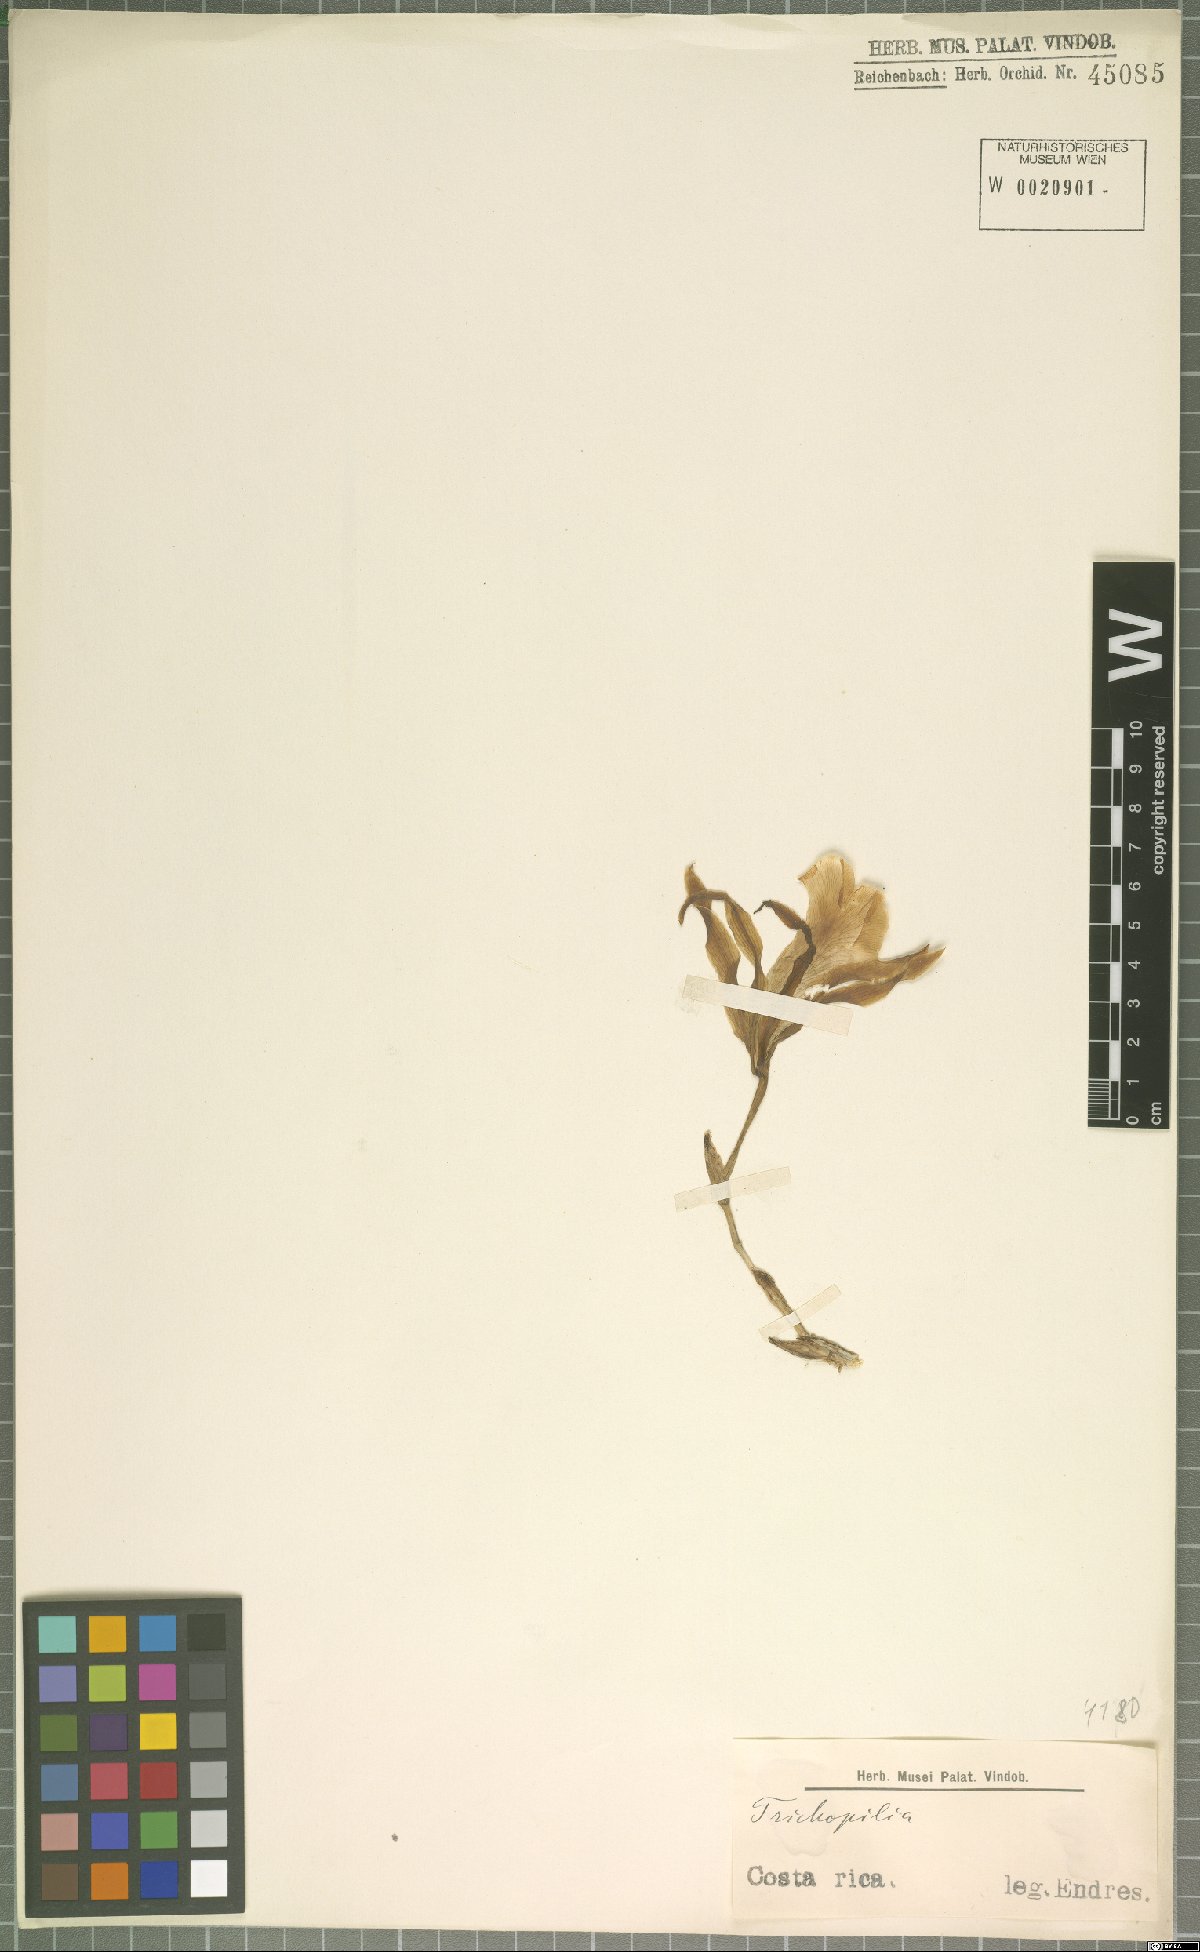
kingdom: Plantae
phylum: Tracheophyta
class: Liliopsida
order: Asparagales
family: Orchidaceae
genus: Trichopilia
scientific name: Trichopilia
